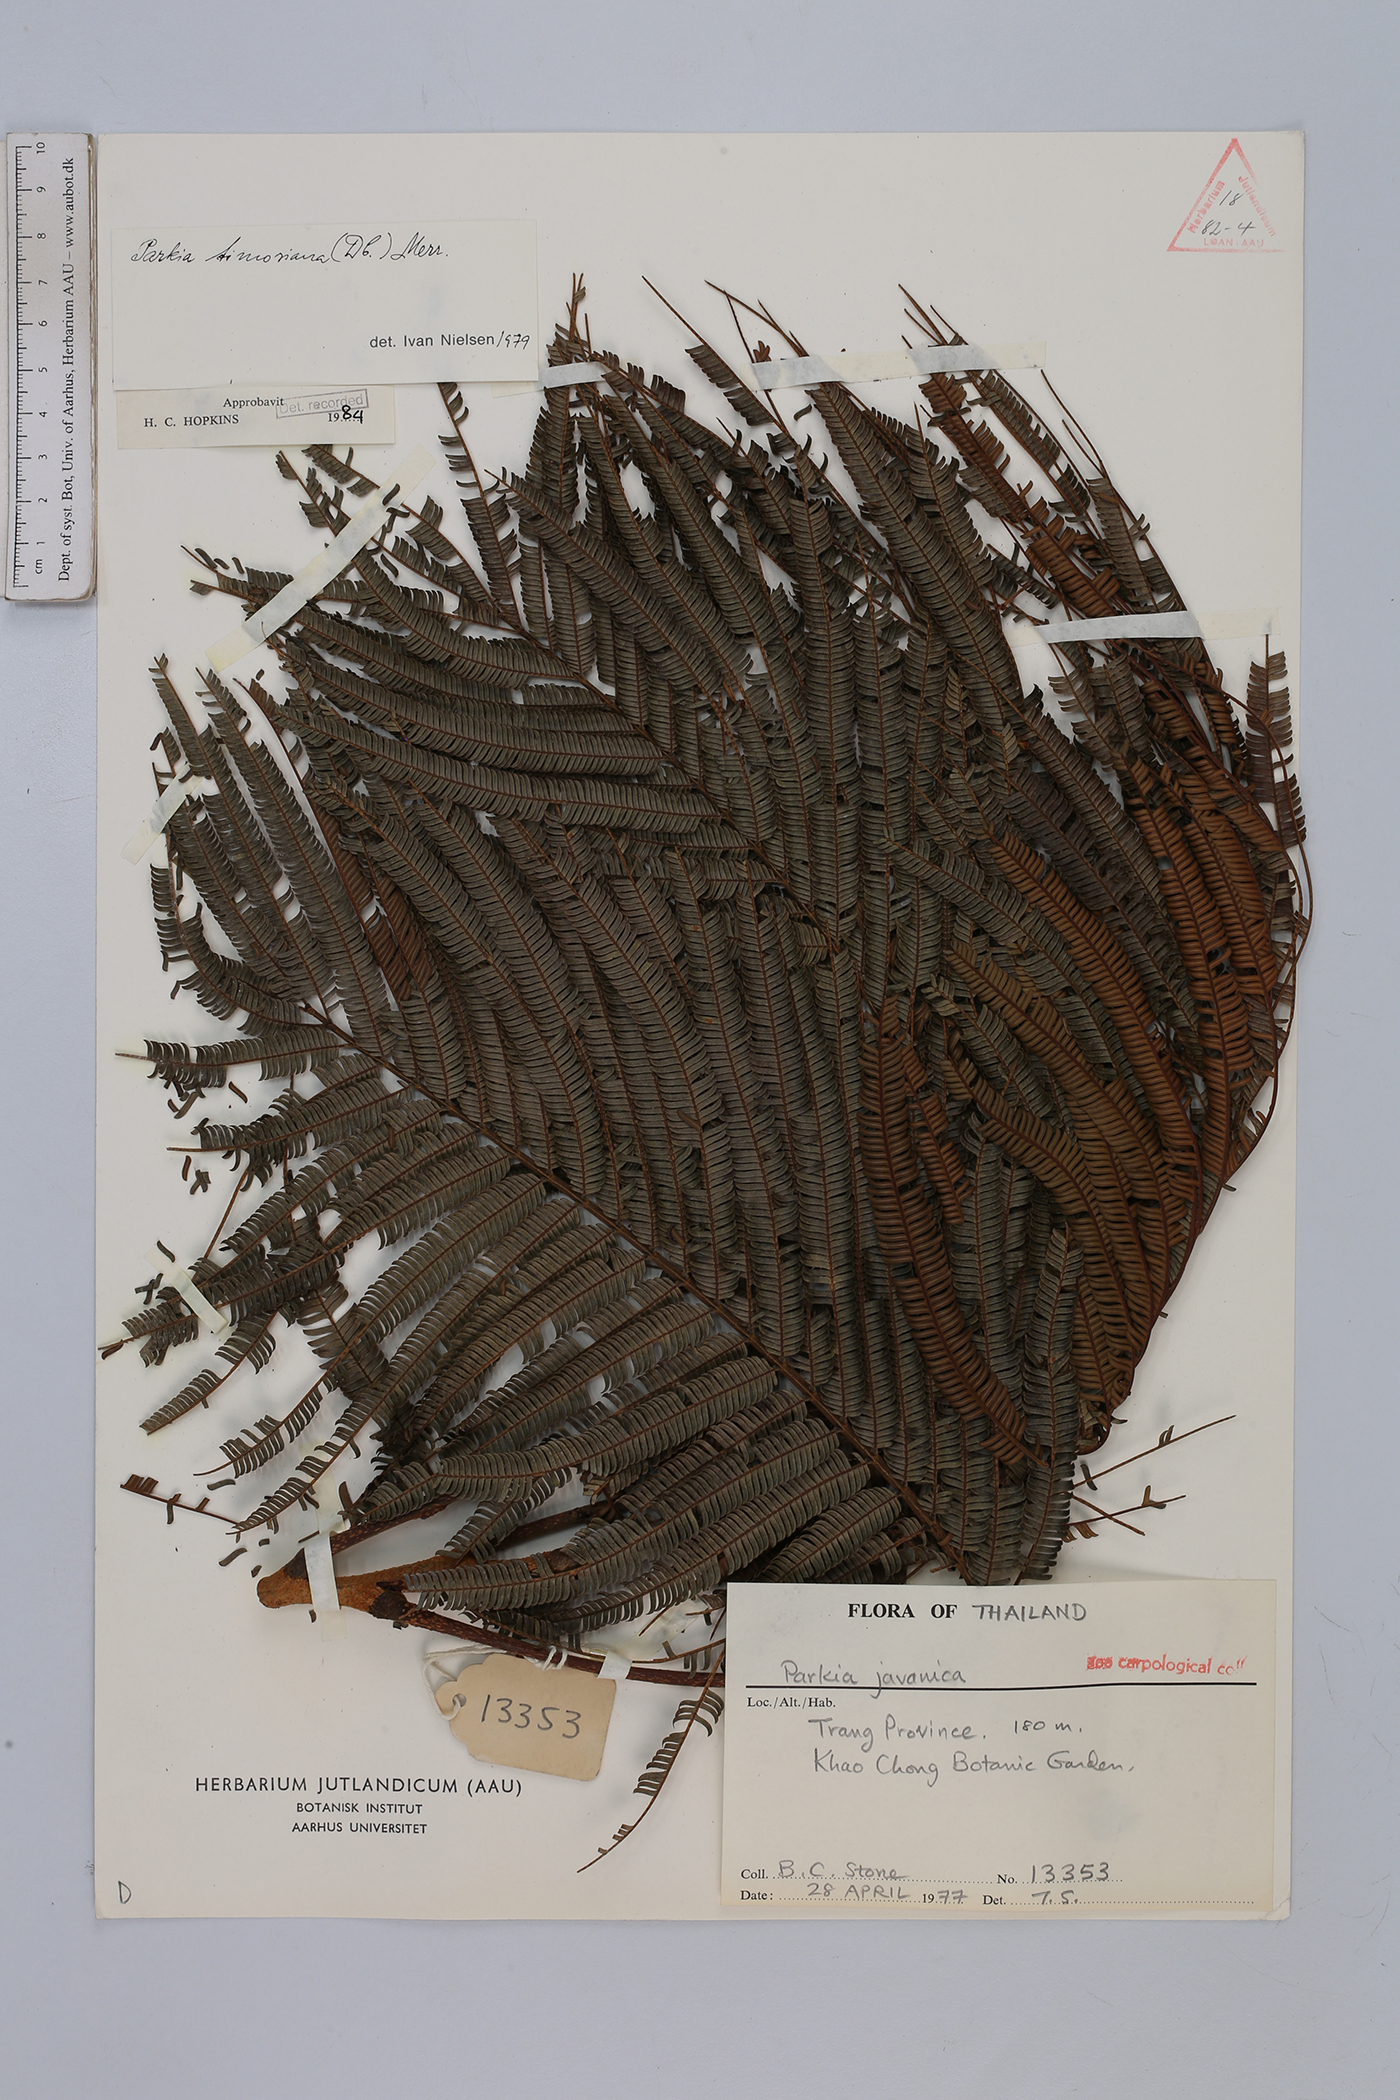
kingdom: Plantae
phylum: Tracheophyta
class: Magnoliopsida
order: Fabales
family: Fabaceae
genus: Parkia
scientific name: Parkia timoriana
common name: Legume
